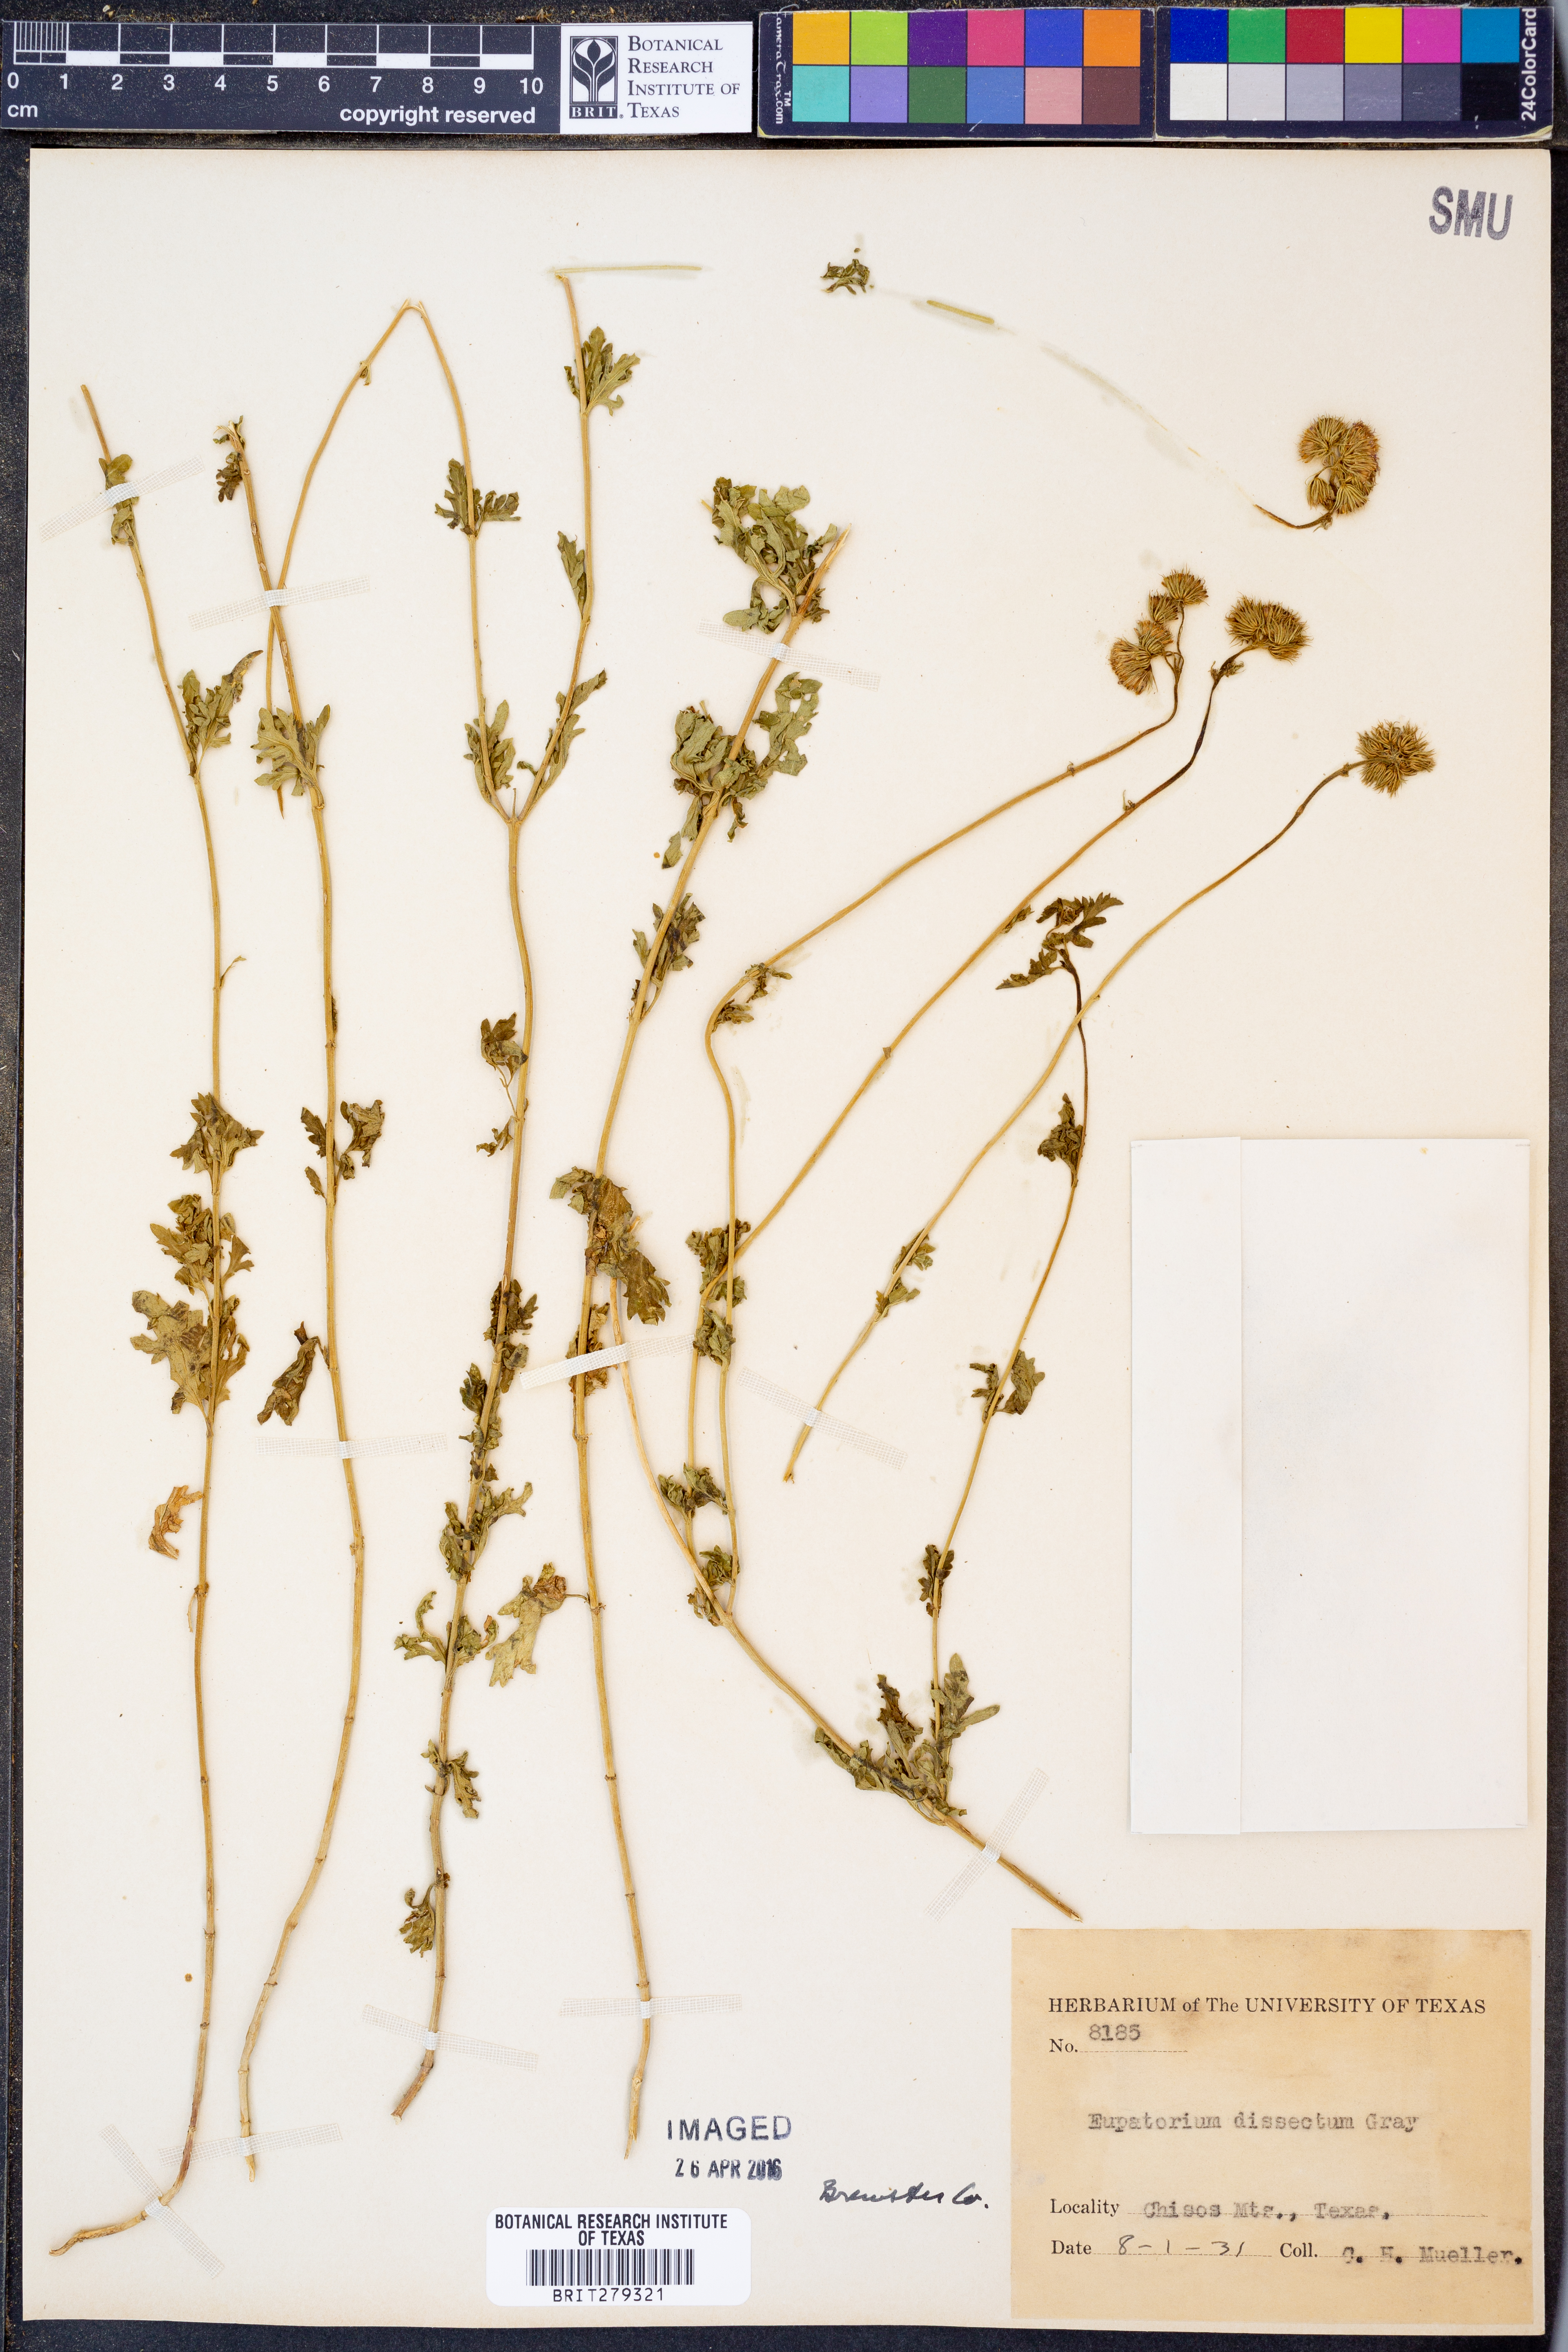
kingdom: Plantae
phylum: Tracheophyta
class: Magnoliopsida
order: Asterales
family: Asteraceae
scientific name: Asteraceae
